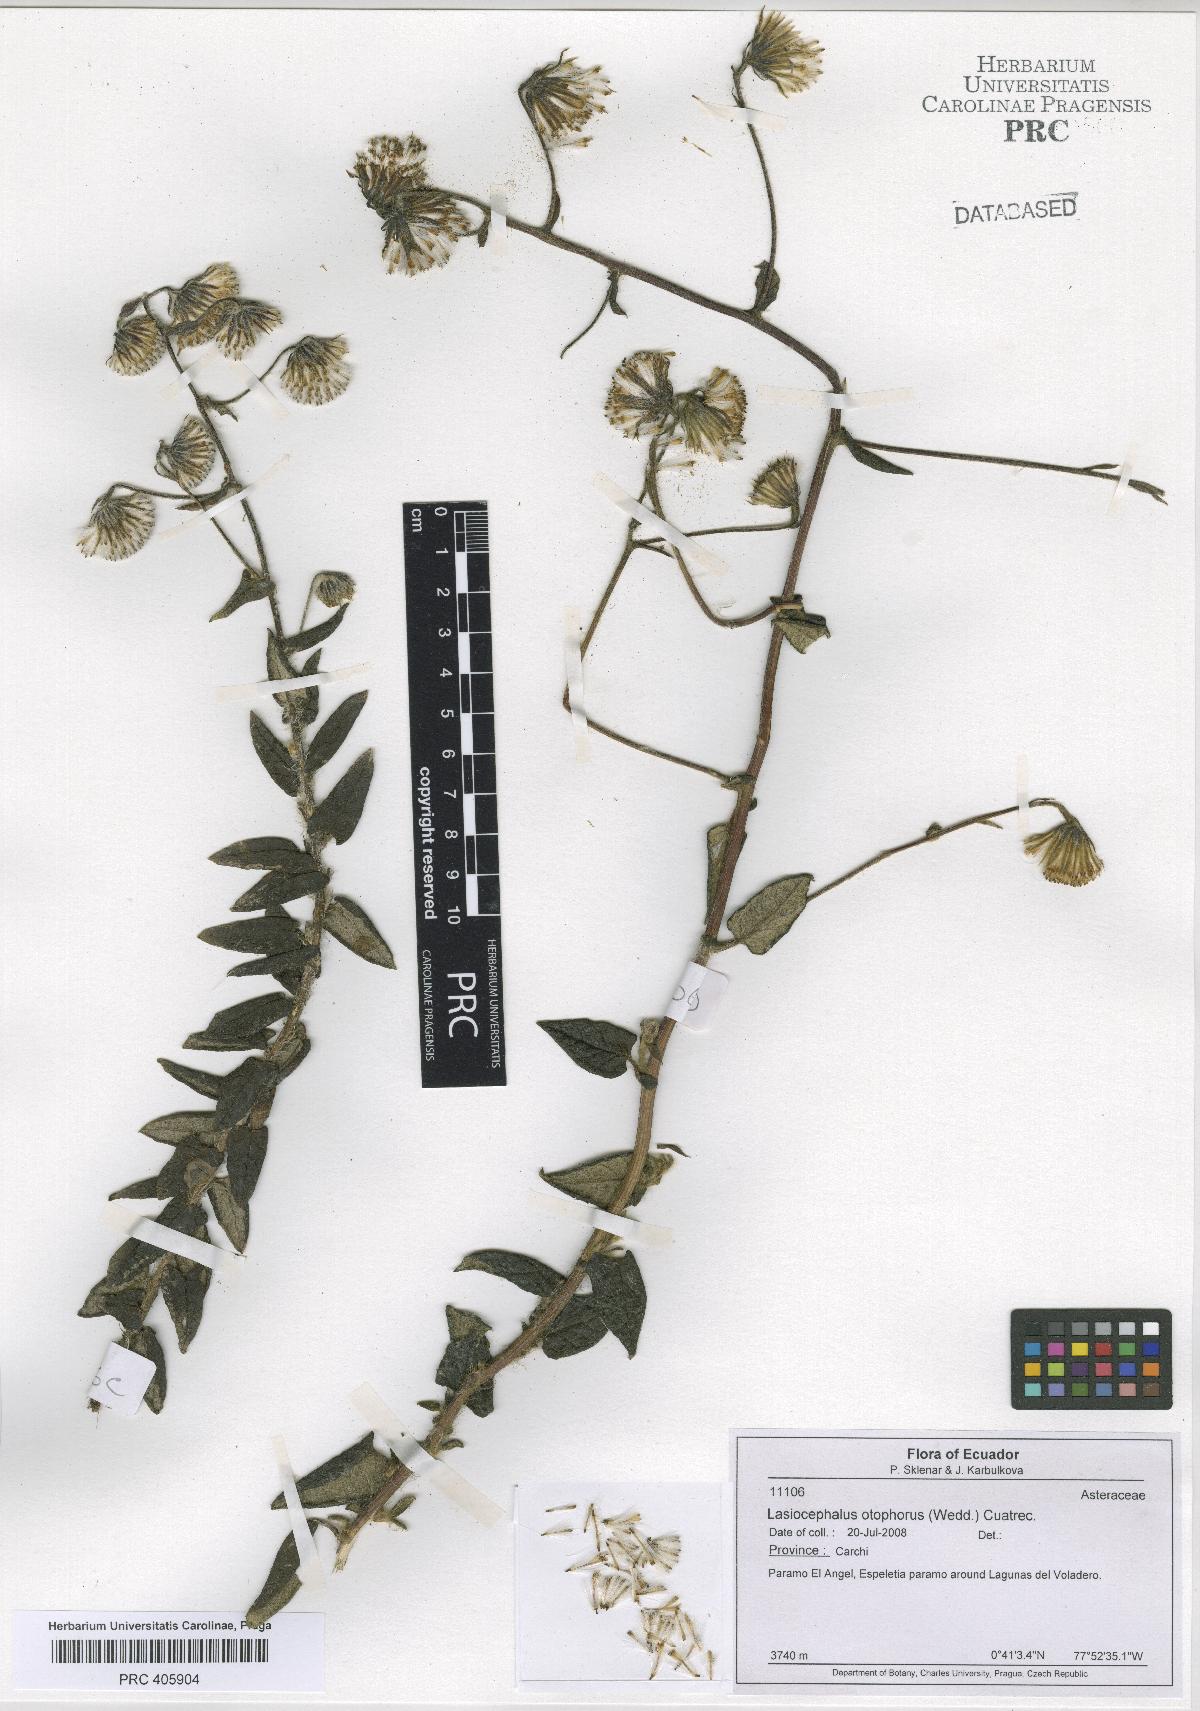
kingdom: Plantae
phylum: Tracheophyta
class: Magnoliopsida
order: Asterales
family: Asteraceae
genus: Aetheolaena
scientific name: Aetheolaena otophora
